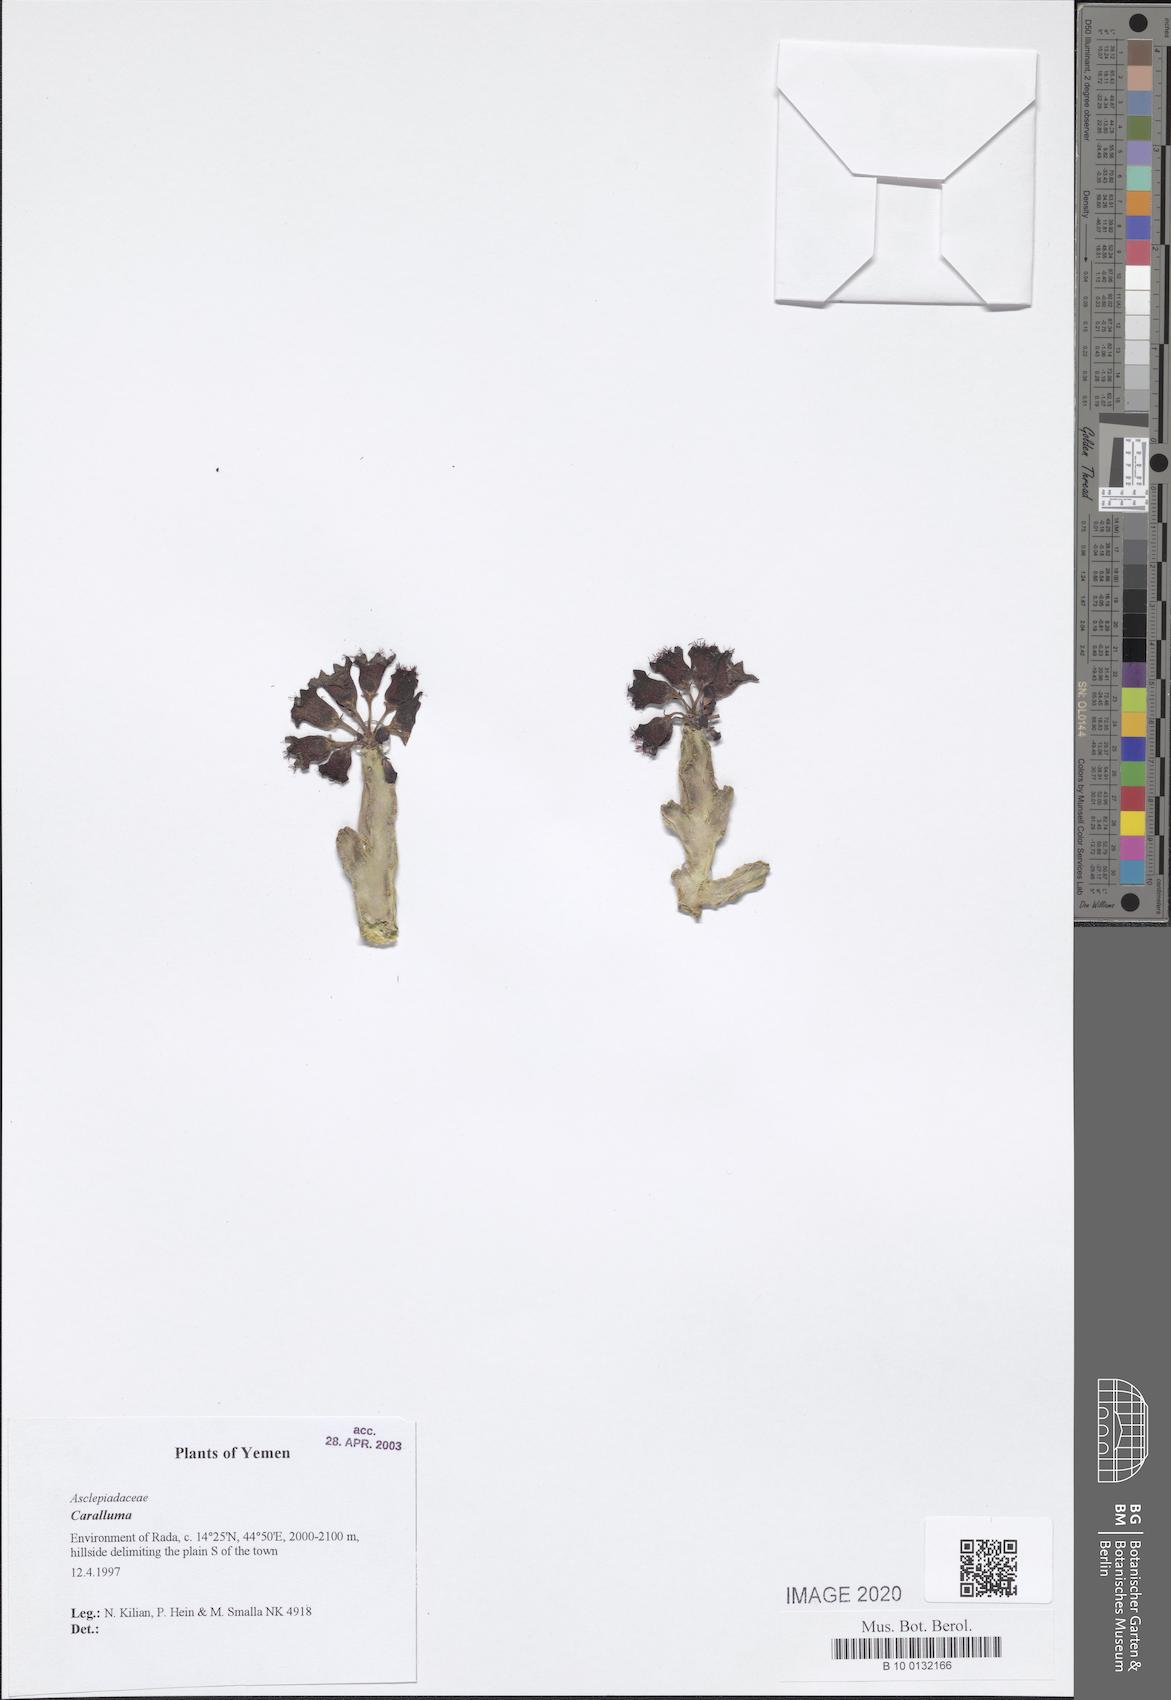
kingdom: Plantae
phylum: Tracheophyta
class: Magnoliopsida
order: Gentianales
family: Apocynaceae
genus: Ceropegia
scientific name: Ceropegia petraea
